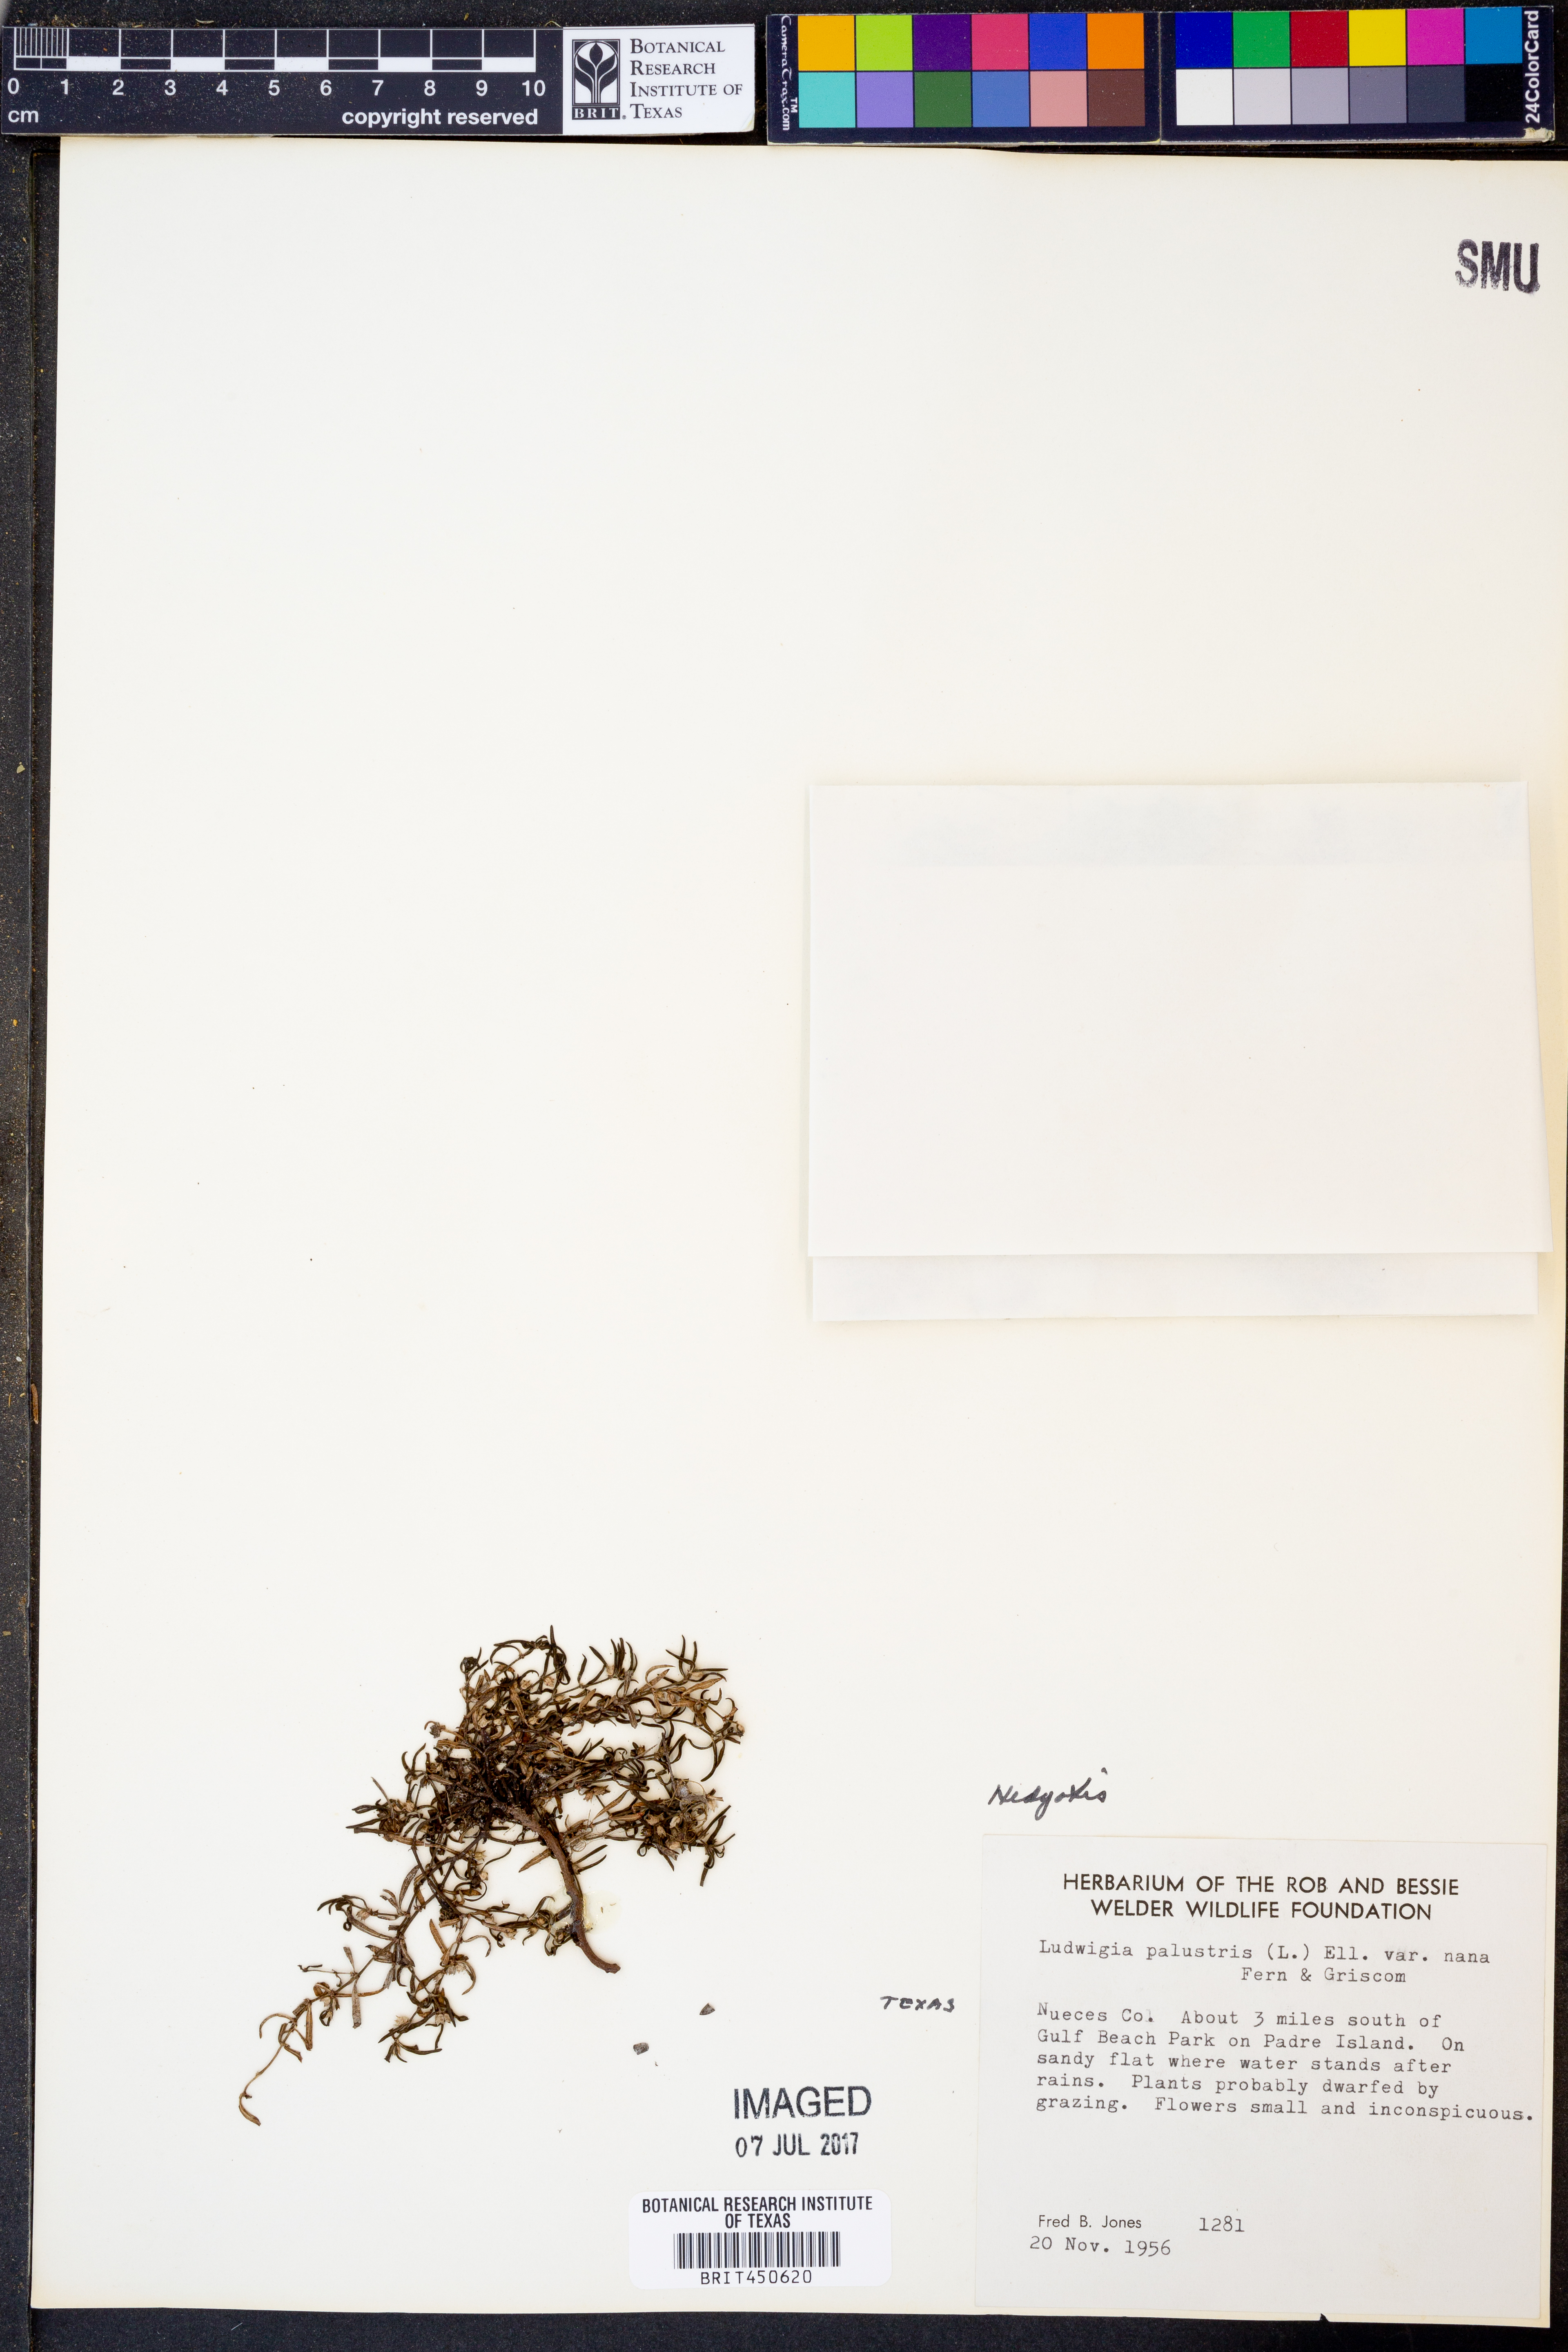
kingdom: Plantae
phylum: Tracheophyta
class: Magnoliopsida
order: Gentianales
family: Rubiaceae
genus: Hedyotis
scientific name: Hedyotis
